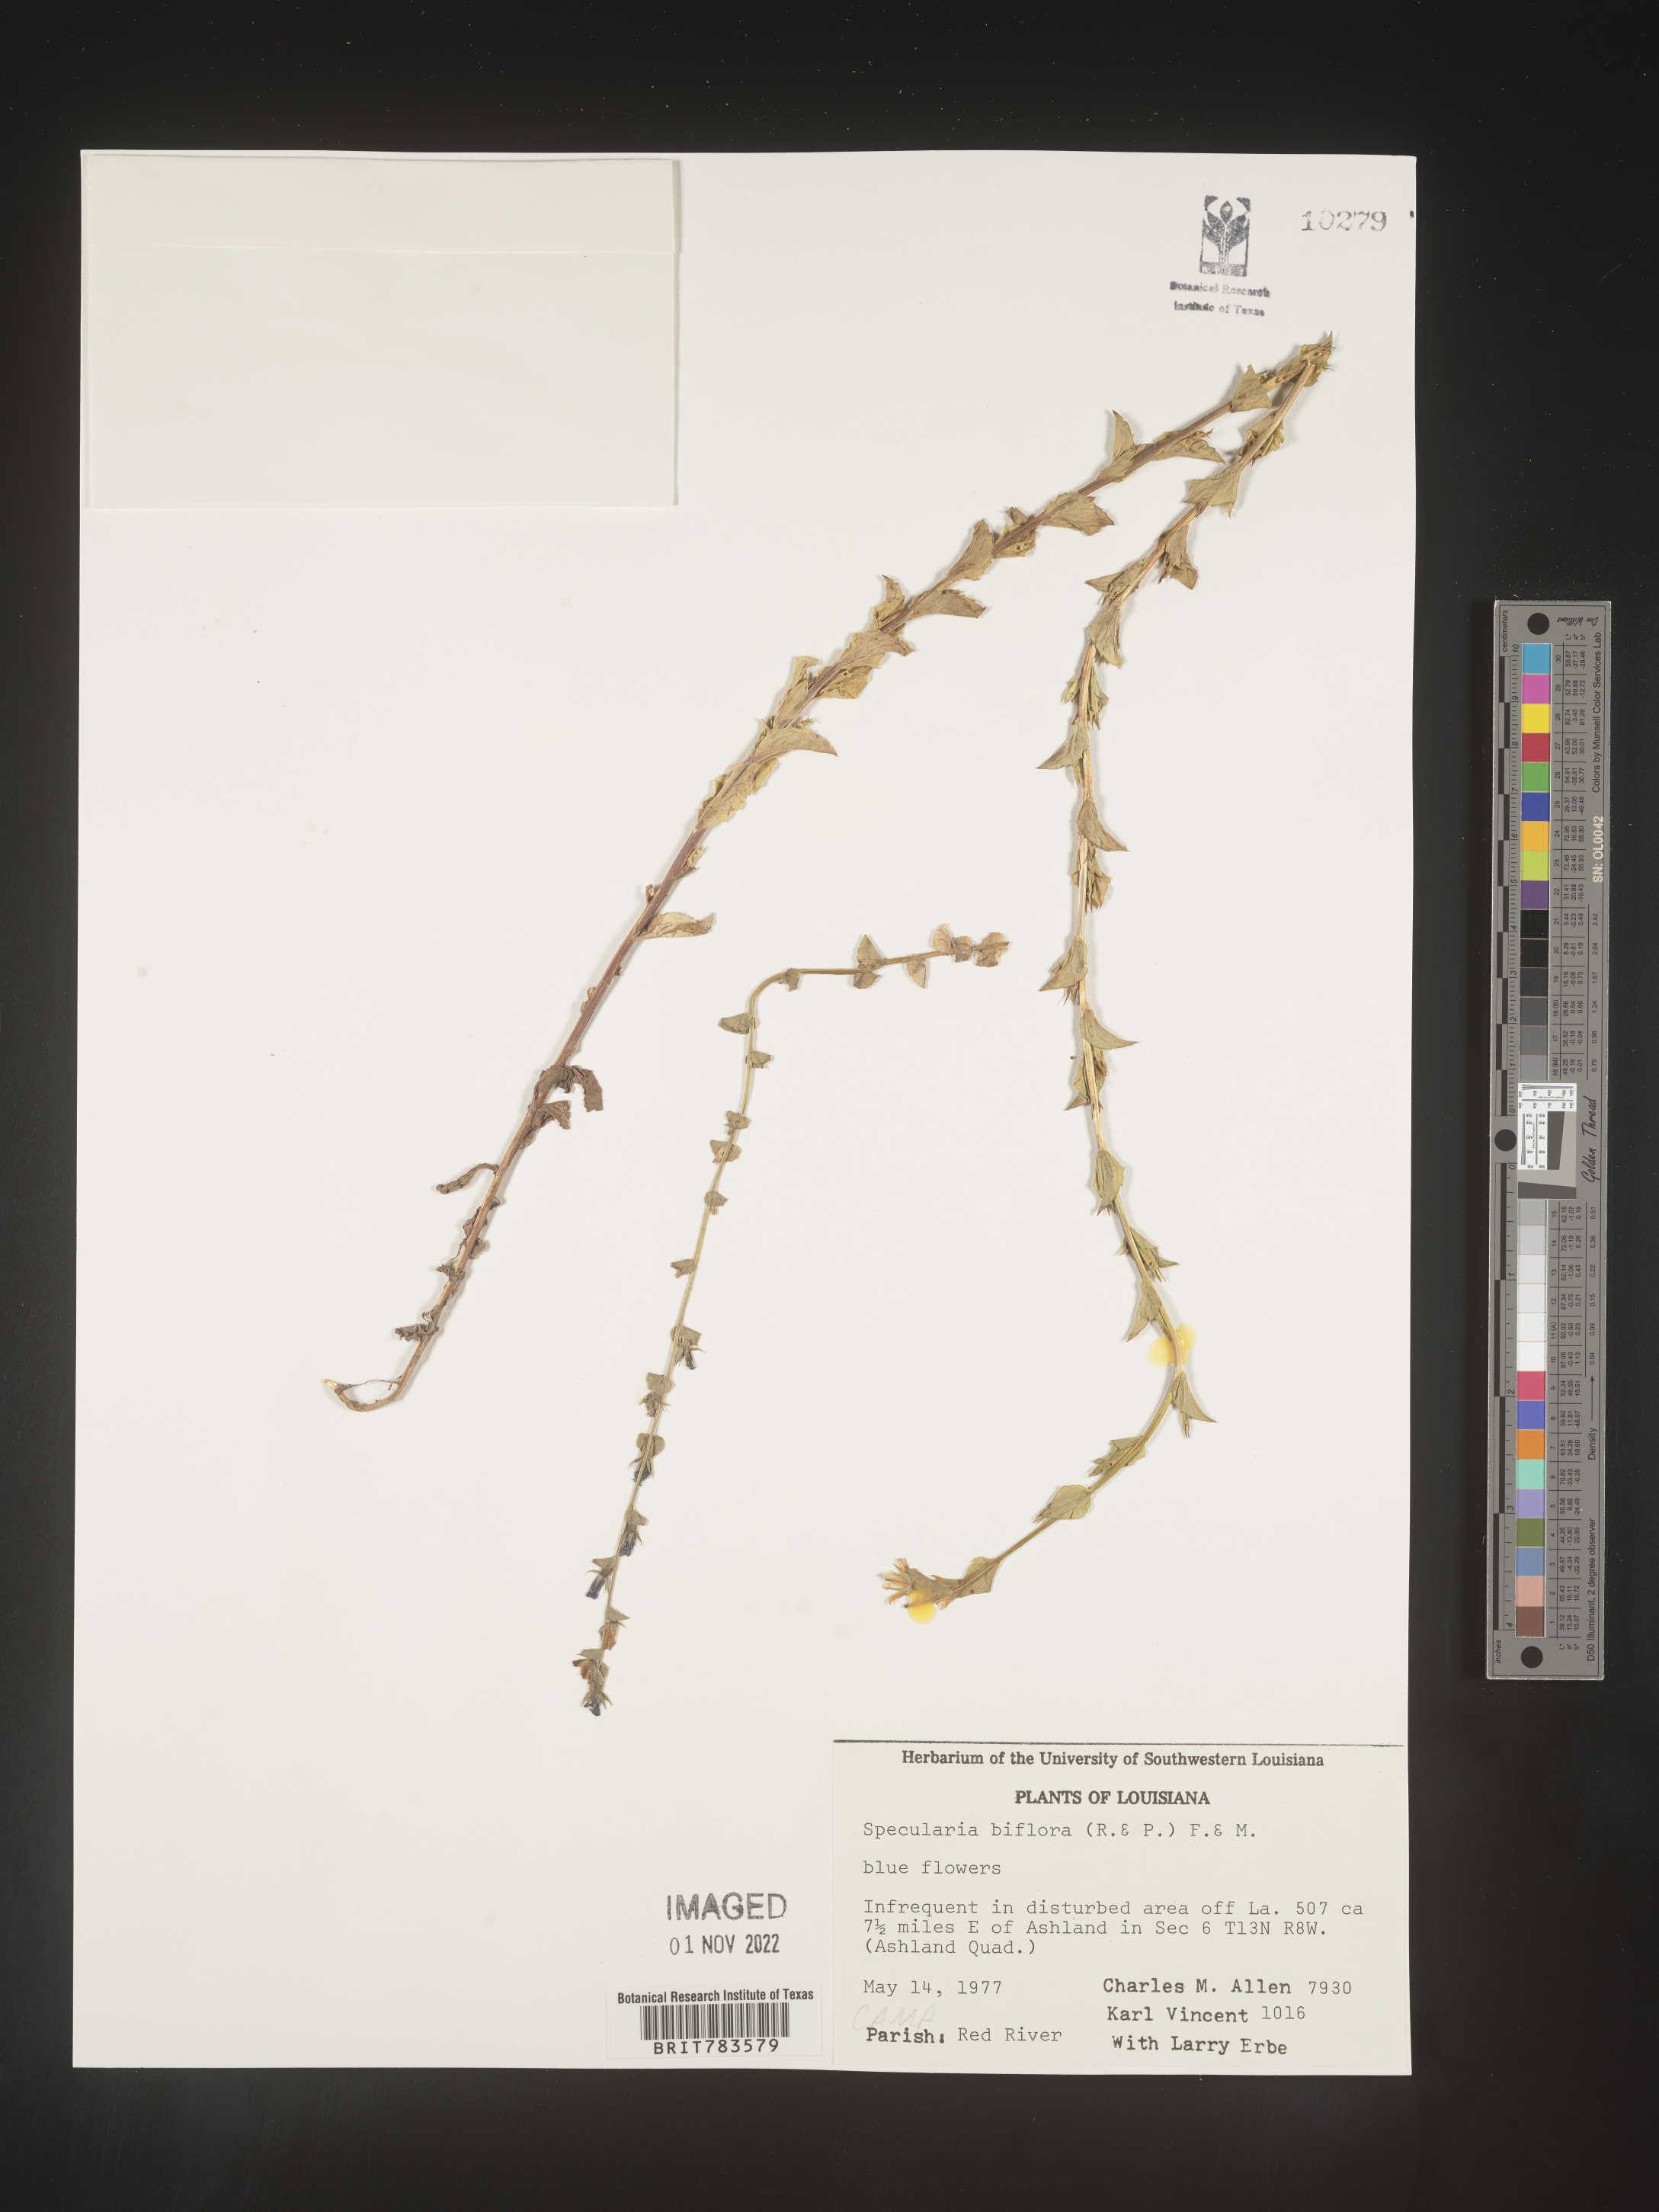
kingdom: Plantae
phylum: Tracheophyta
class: Magnoliopsida
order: Asterales
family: Campanulaceae
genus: Triodanis
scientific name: Triodanis perfoliata
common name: Clasping venus' looking-glass
